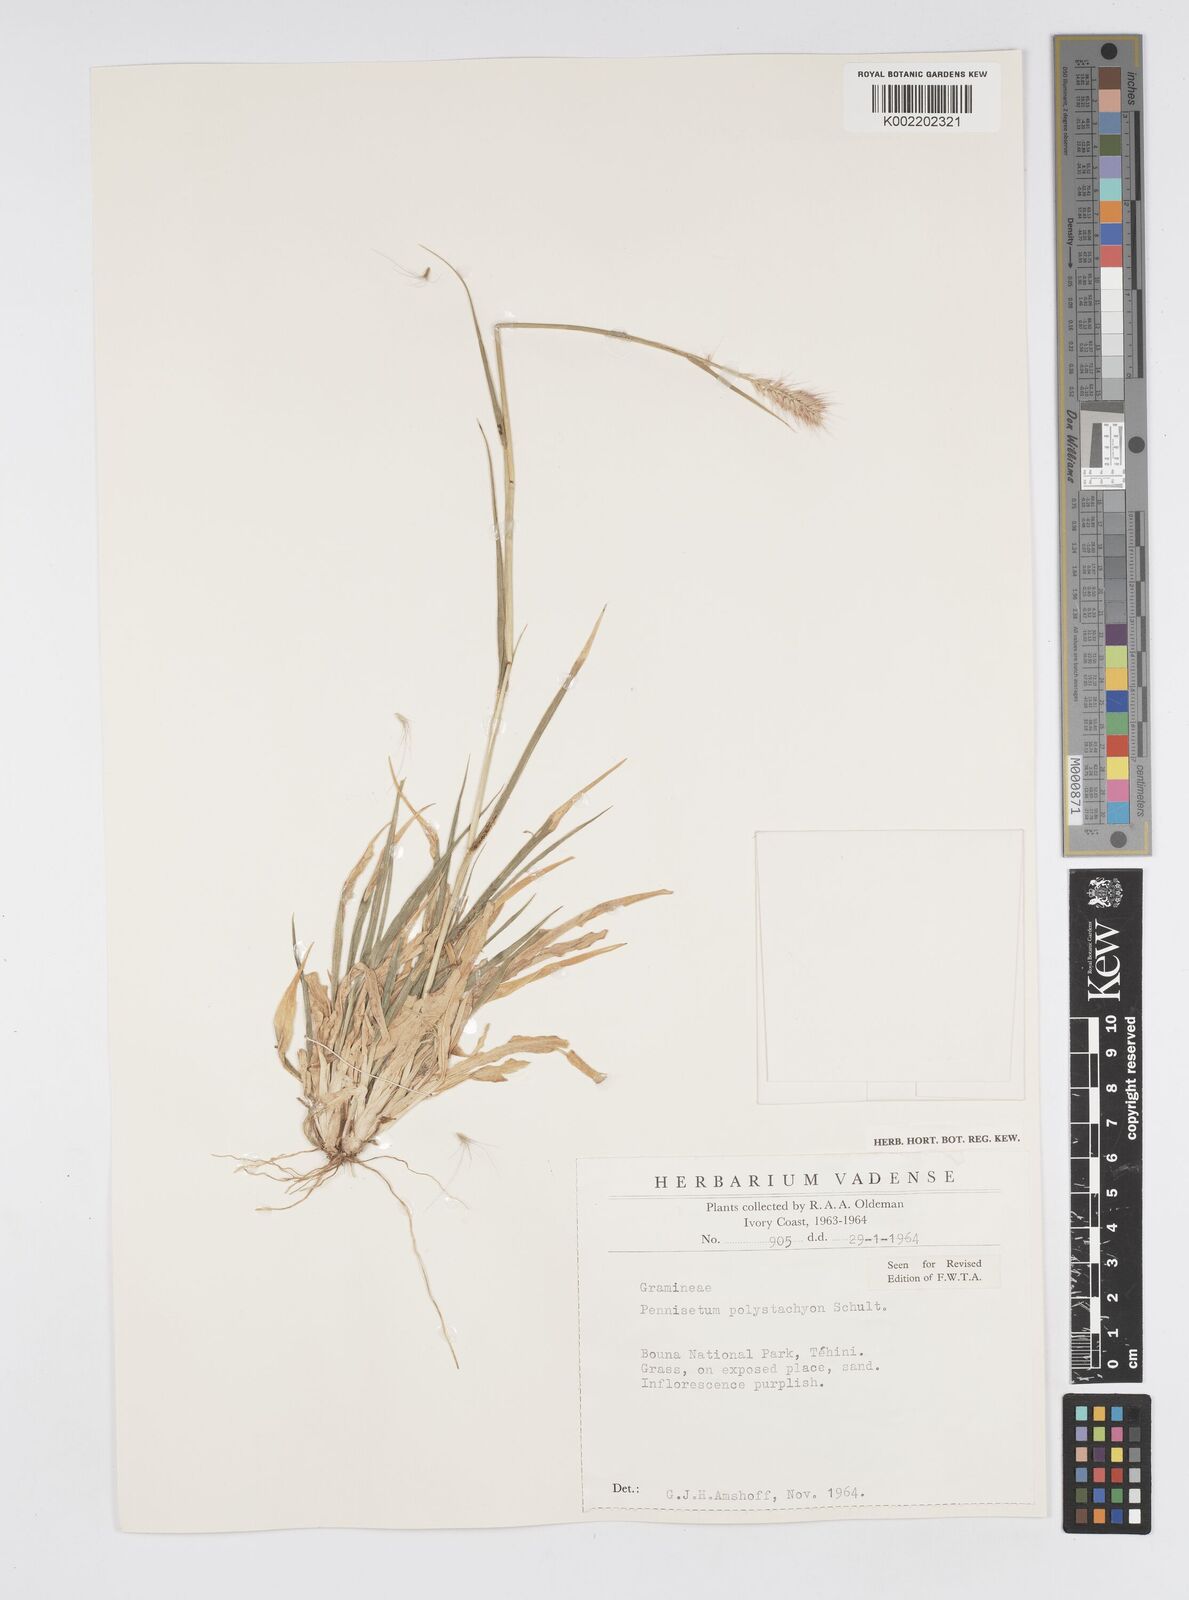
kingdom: Plantae
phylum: Tracheophyta
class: Liliopsida
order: Poales
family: Poaceae
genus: Setaria
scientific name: Setaria parviflora
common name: Knotroot bristle-grass
